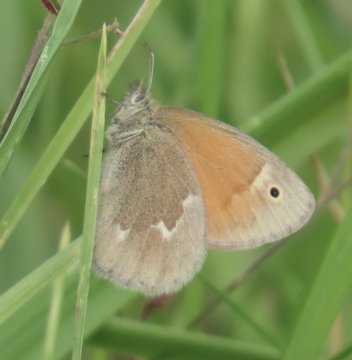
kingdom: Animalia
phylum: Arthropoda
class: Insecta
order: Lepidoptera
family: Nymphalidae
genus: Coenonympha
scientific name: Coenonympha tullia
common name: Large Heath
